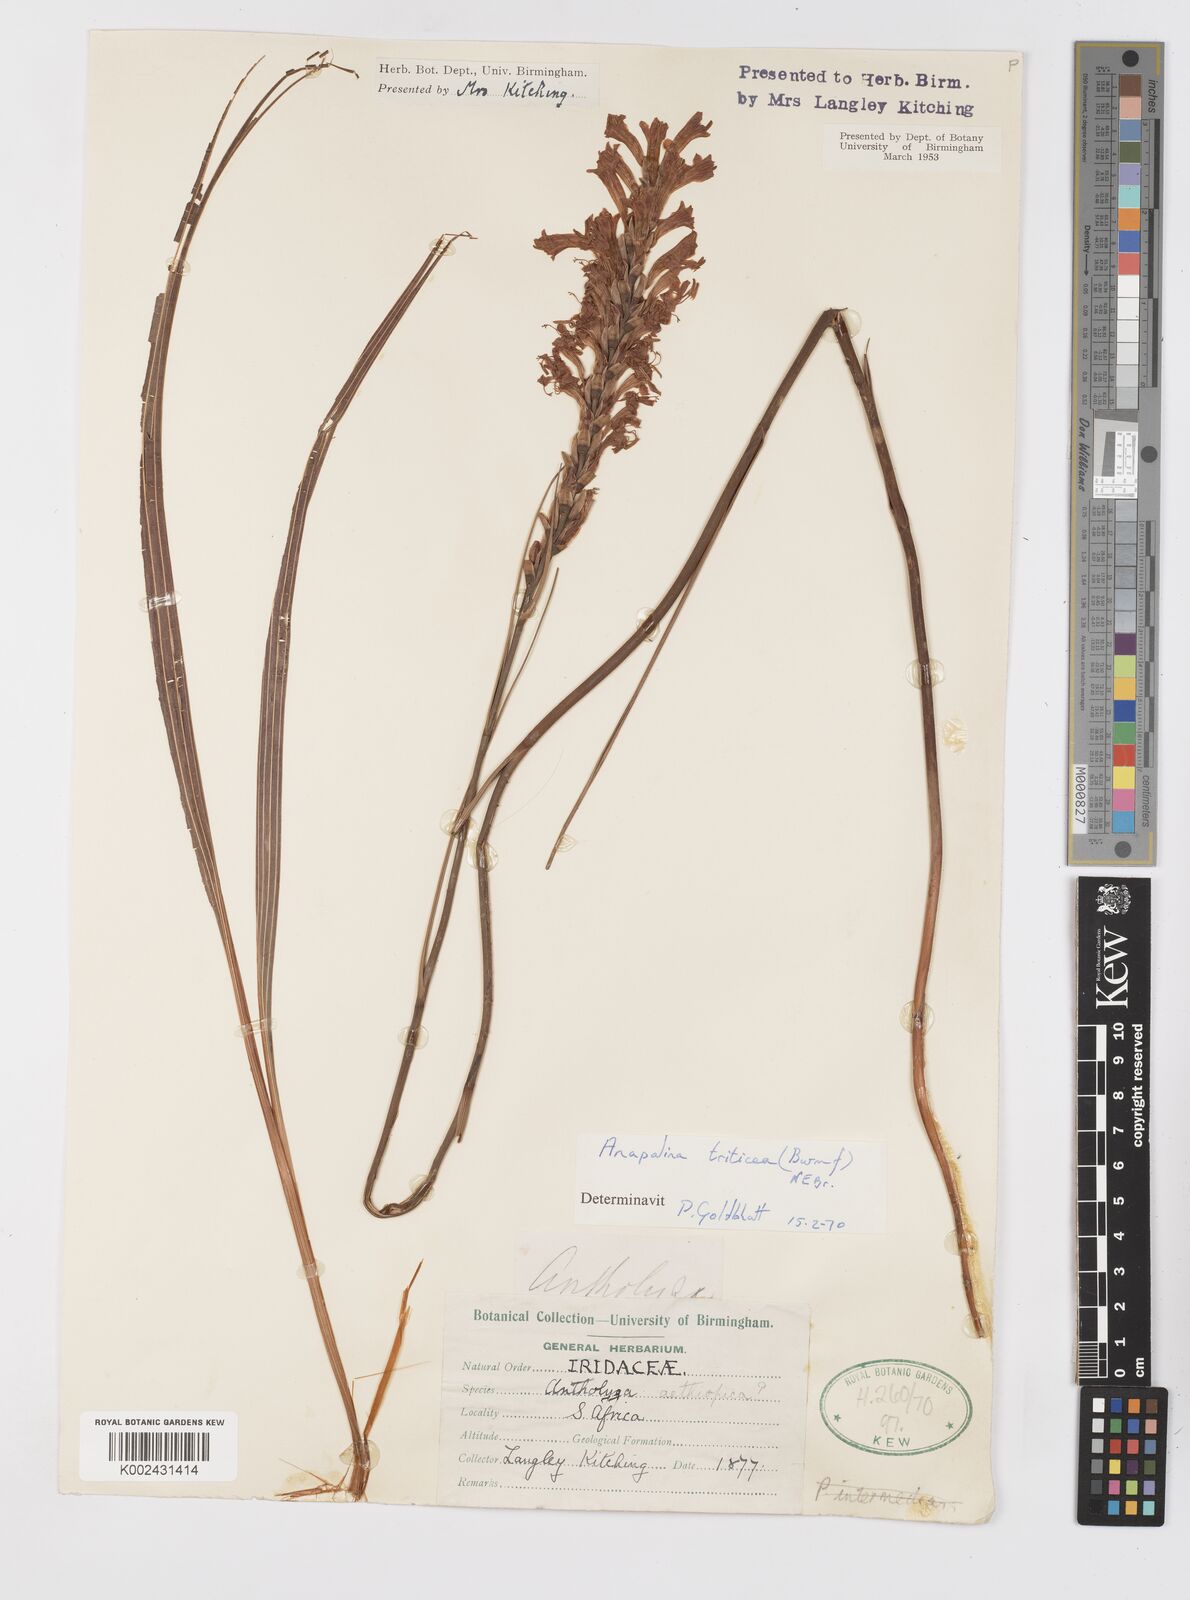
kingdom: Plantae
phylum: Tracheophyta
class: Liliopsida
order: Asparagales
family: Iridaceae
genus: Tritoniopsis
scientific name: Tritoniopsis triticea
